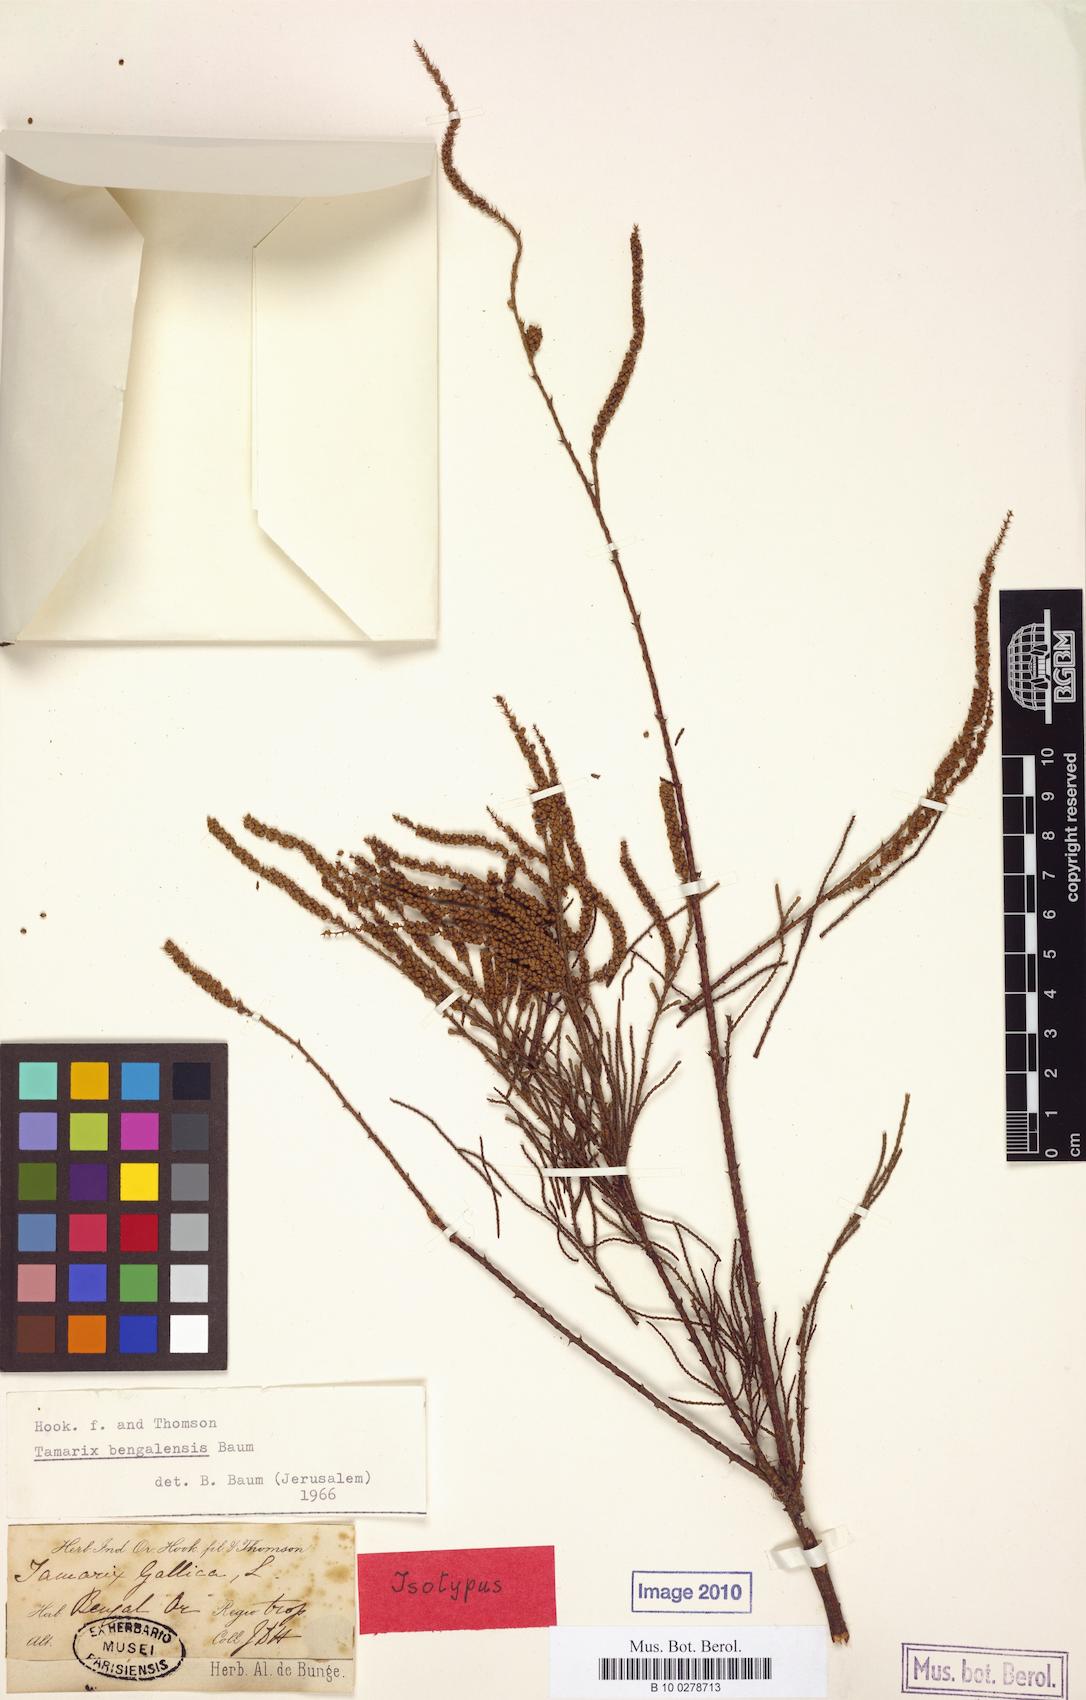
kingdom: Plantae
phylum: Tracheophyta
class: Magnoliopsida
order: Caryophyllales
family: Tamaricaceae
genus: Tamarix
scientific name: Tamarix indica
